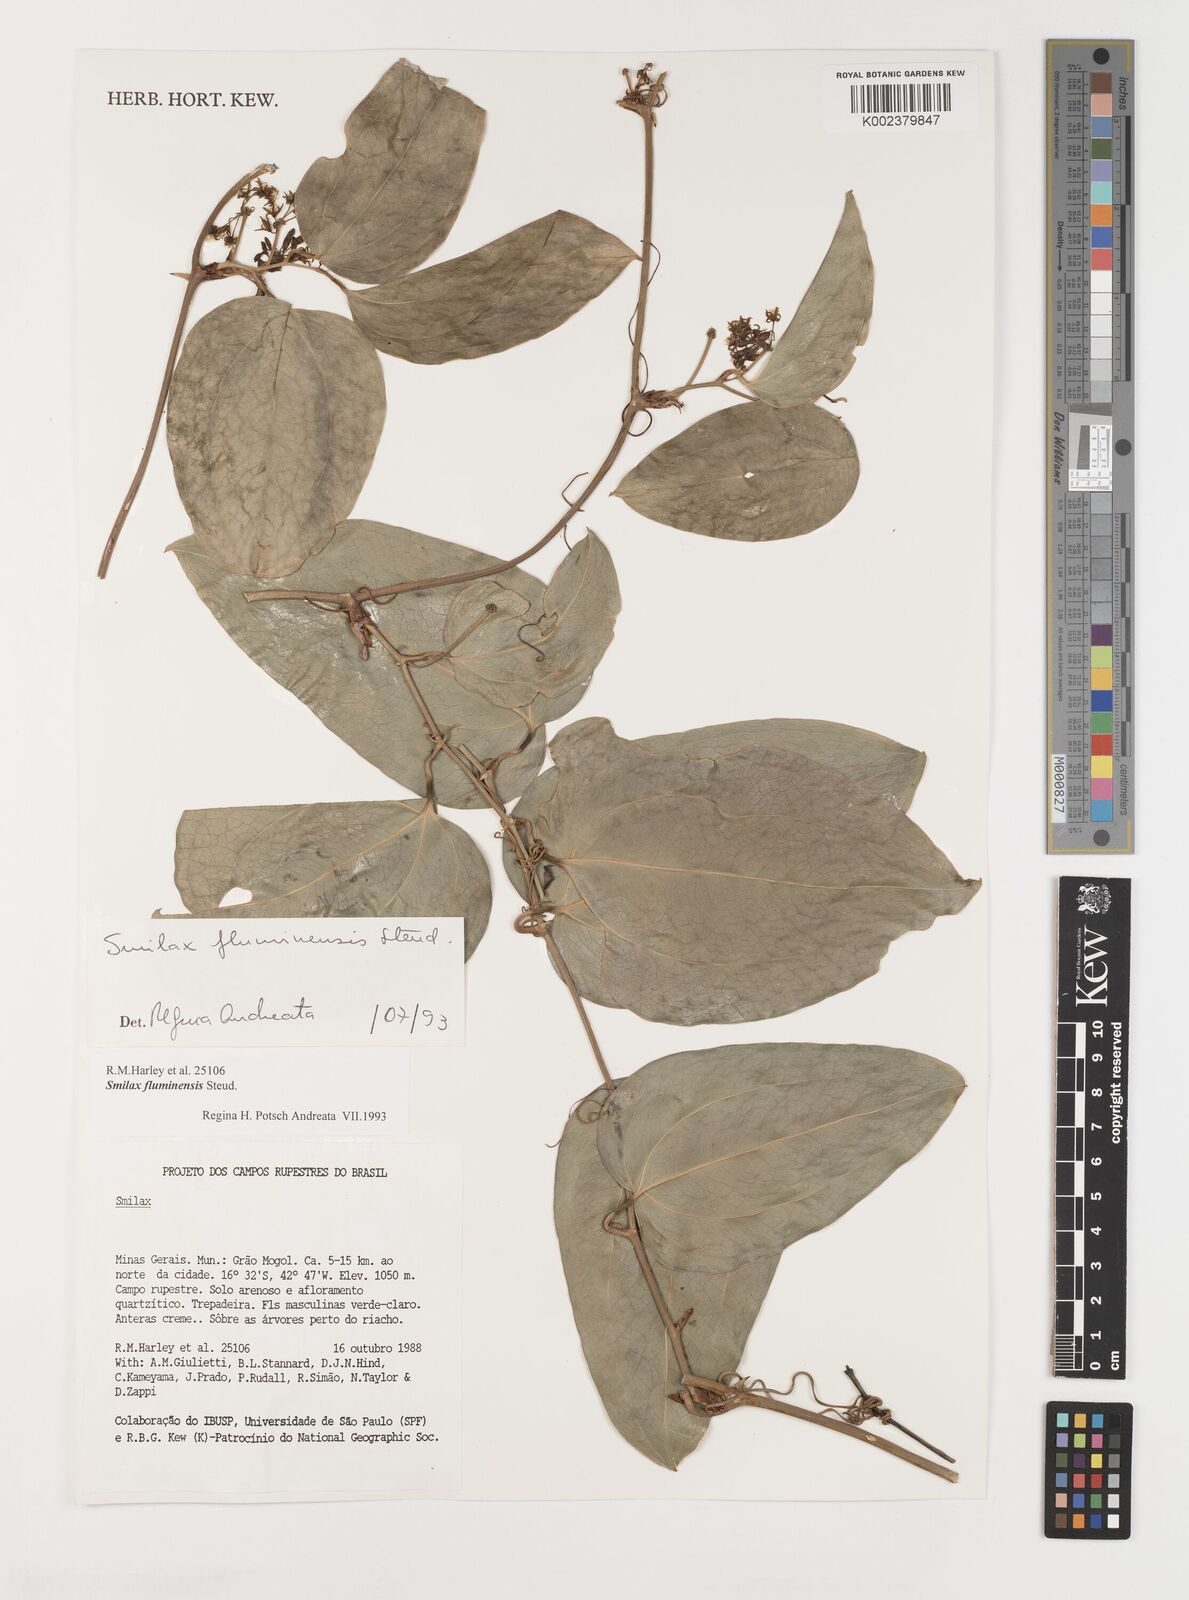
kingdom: Plantae
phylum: Tracheophyta
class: Liliopsida
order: Liliales
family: Smilacaceae
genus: Smilax
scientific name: Smilax fluminensis
